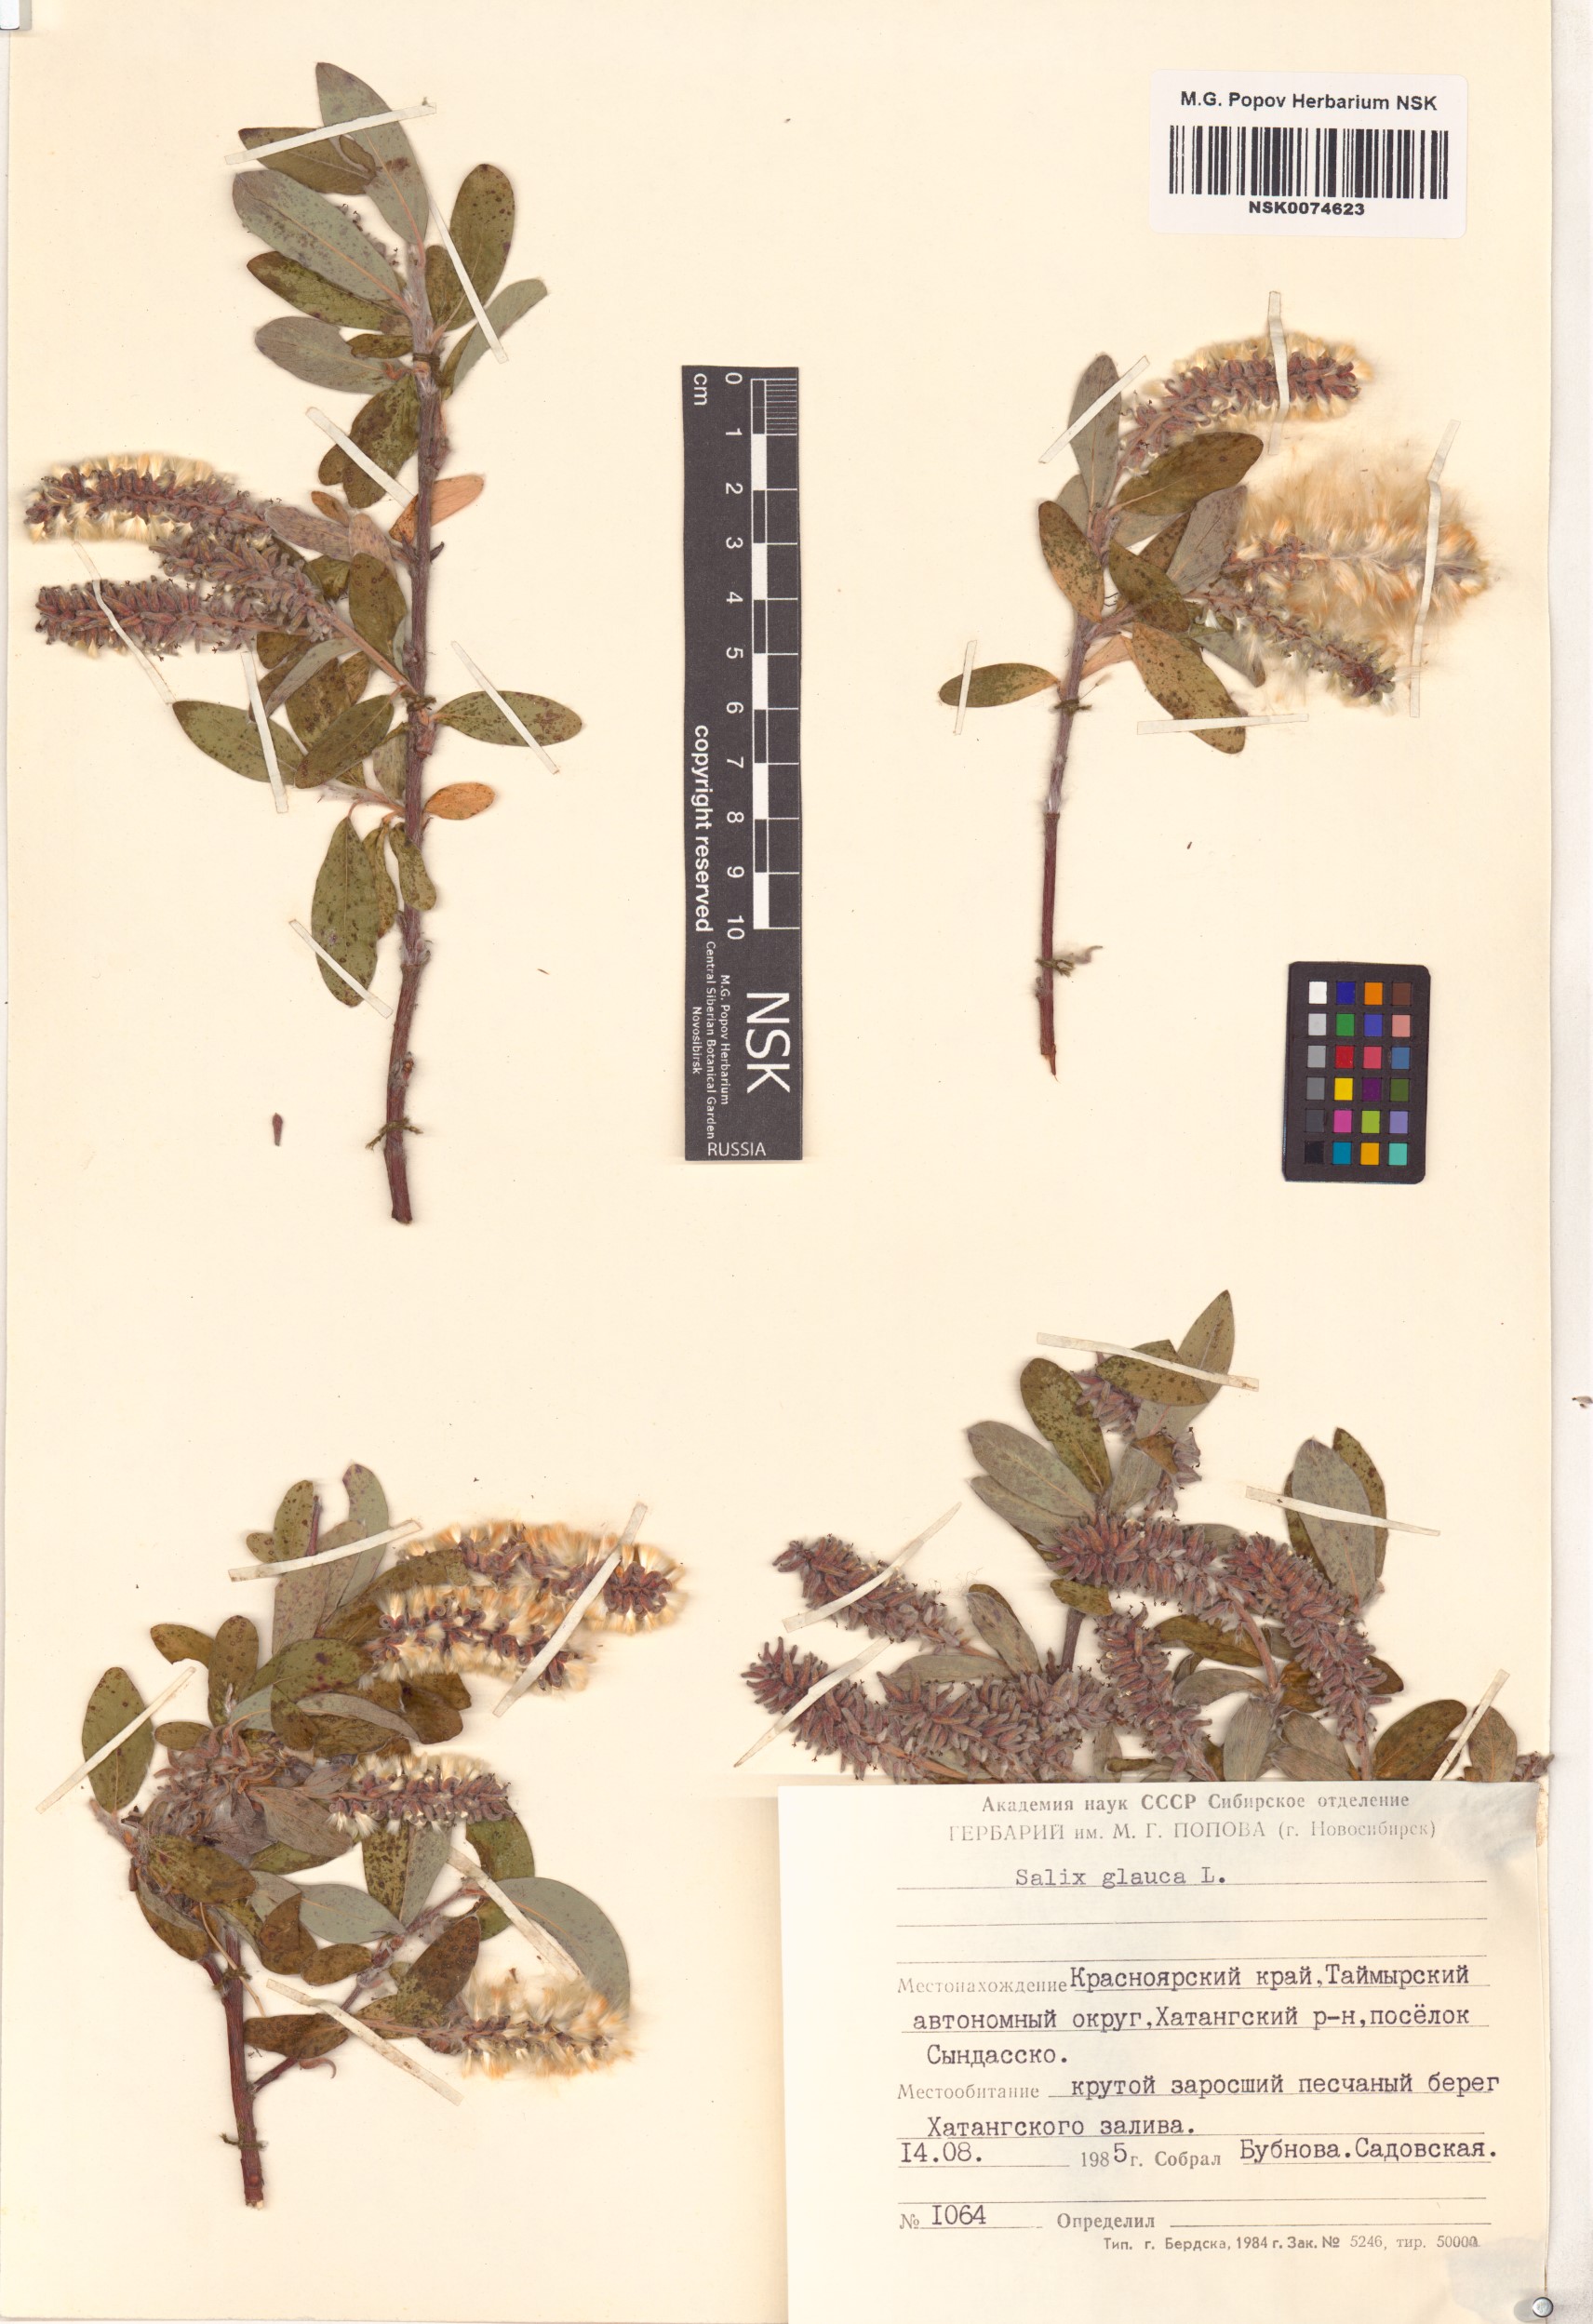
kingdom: Plantae
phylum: Tracheophyta
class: Magnoliopsida
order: Malpighiales
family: Salicaceae
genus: Salix
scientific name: Salix glauca
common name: Glaucous willow
